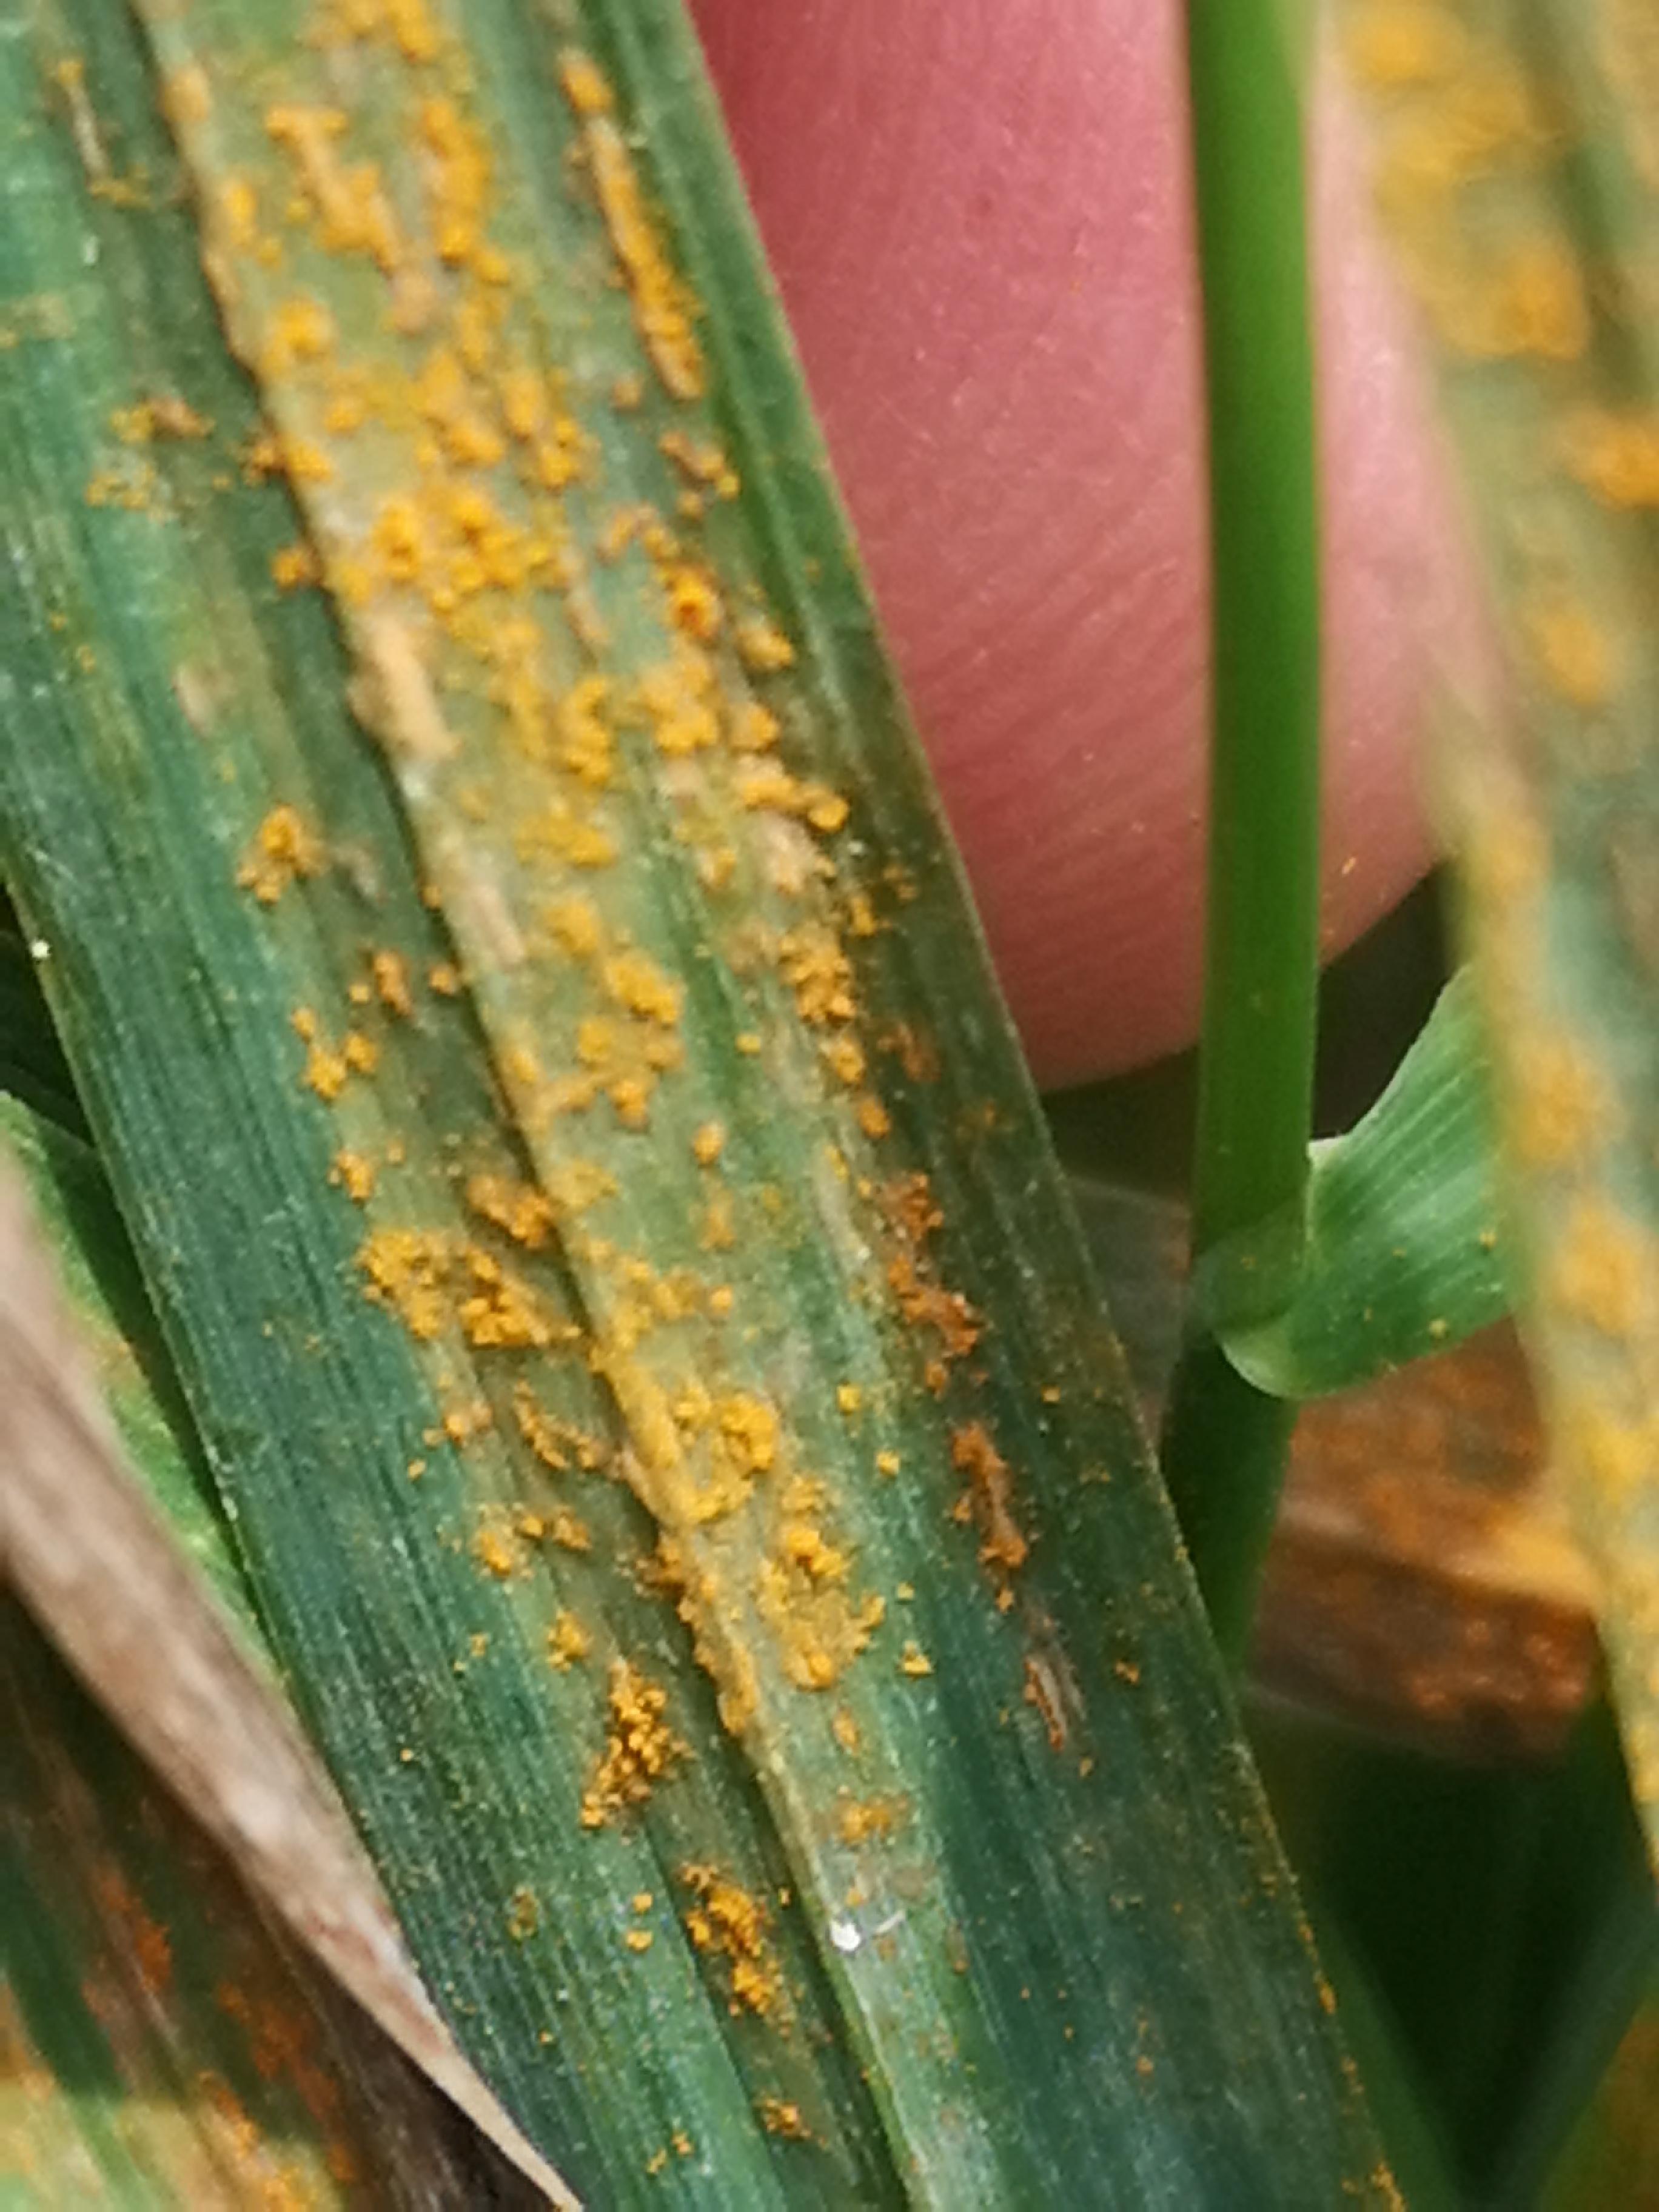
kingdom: Fungi
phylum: Basidiomycota
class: Pucciniomycetes
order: Pucciniales
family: Pucciniaceae
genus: Puccinia
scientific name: Puccinia
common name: tvecellerust
